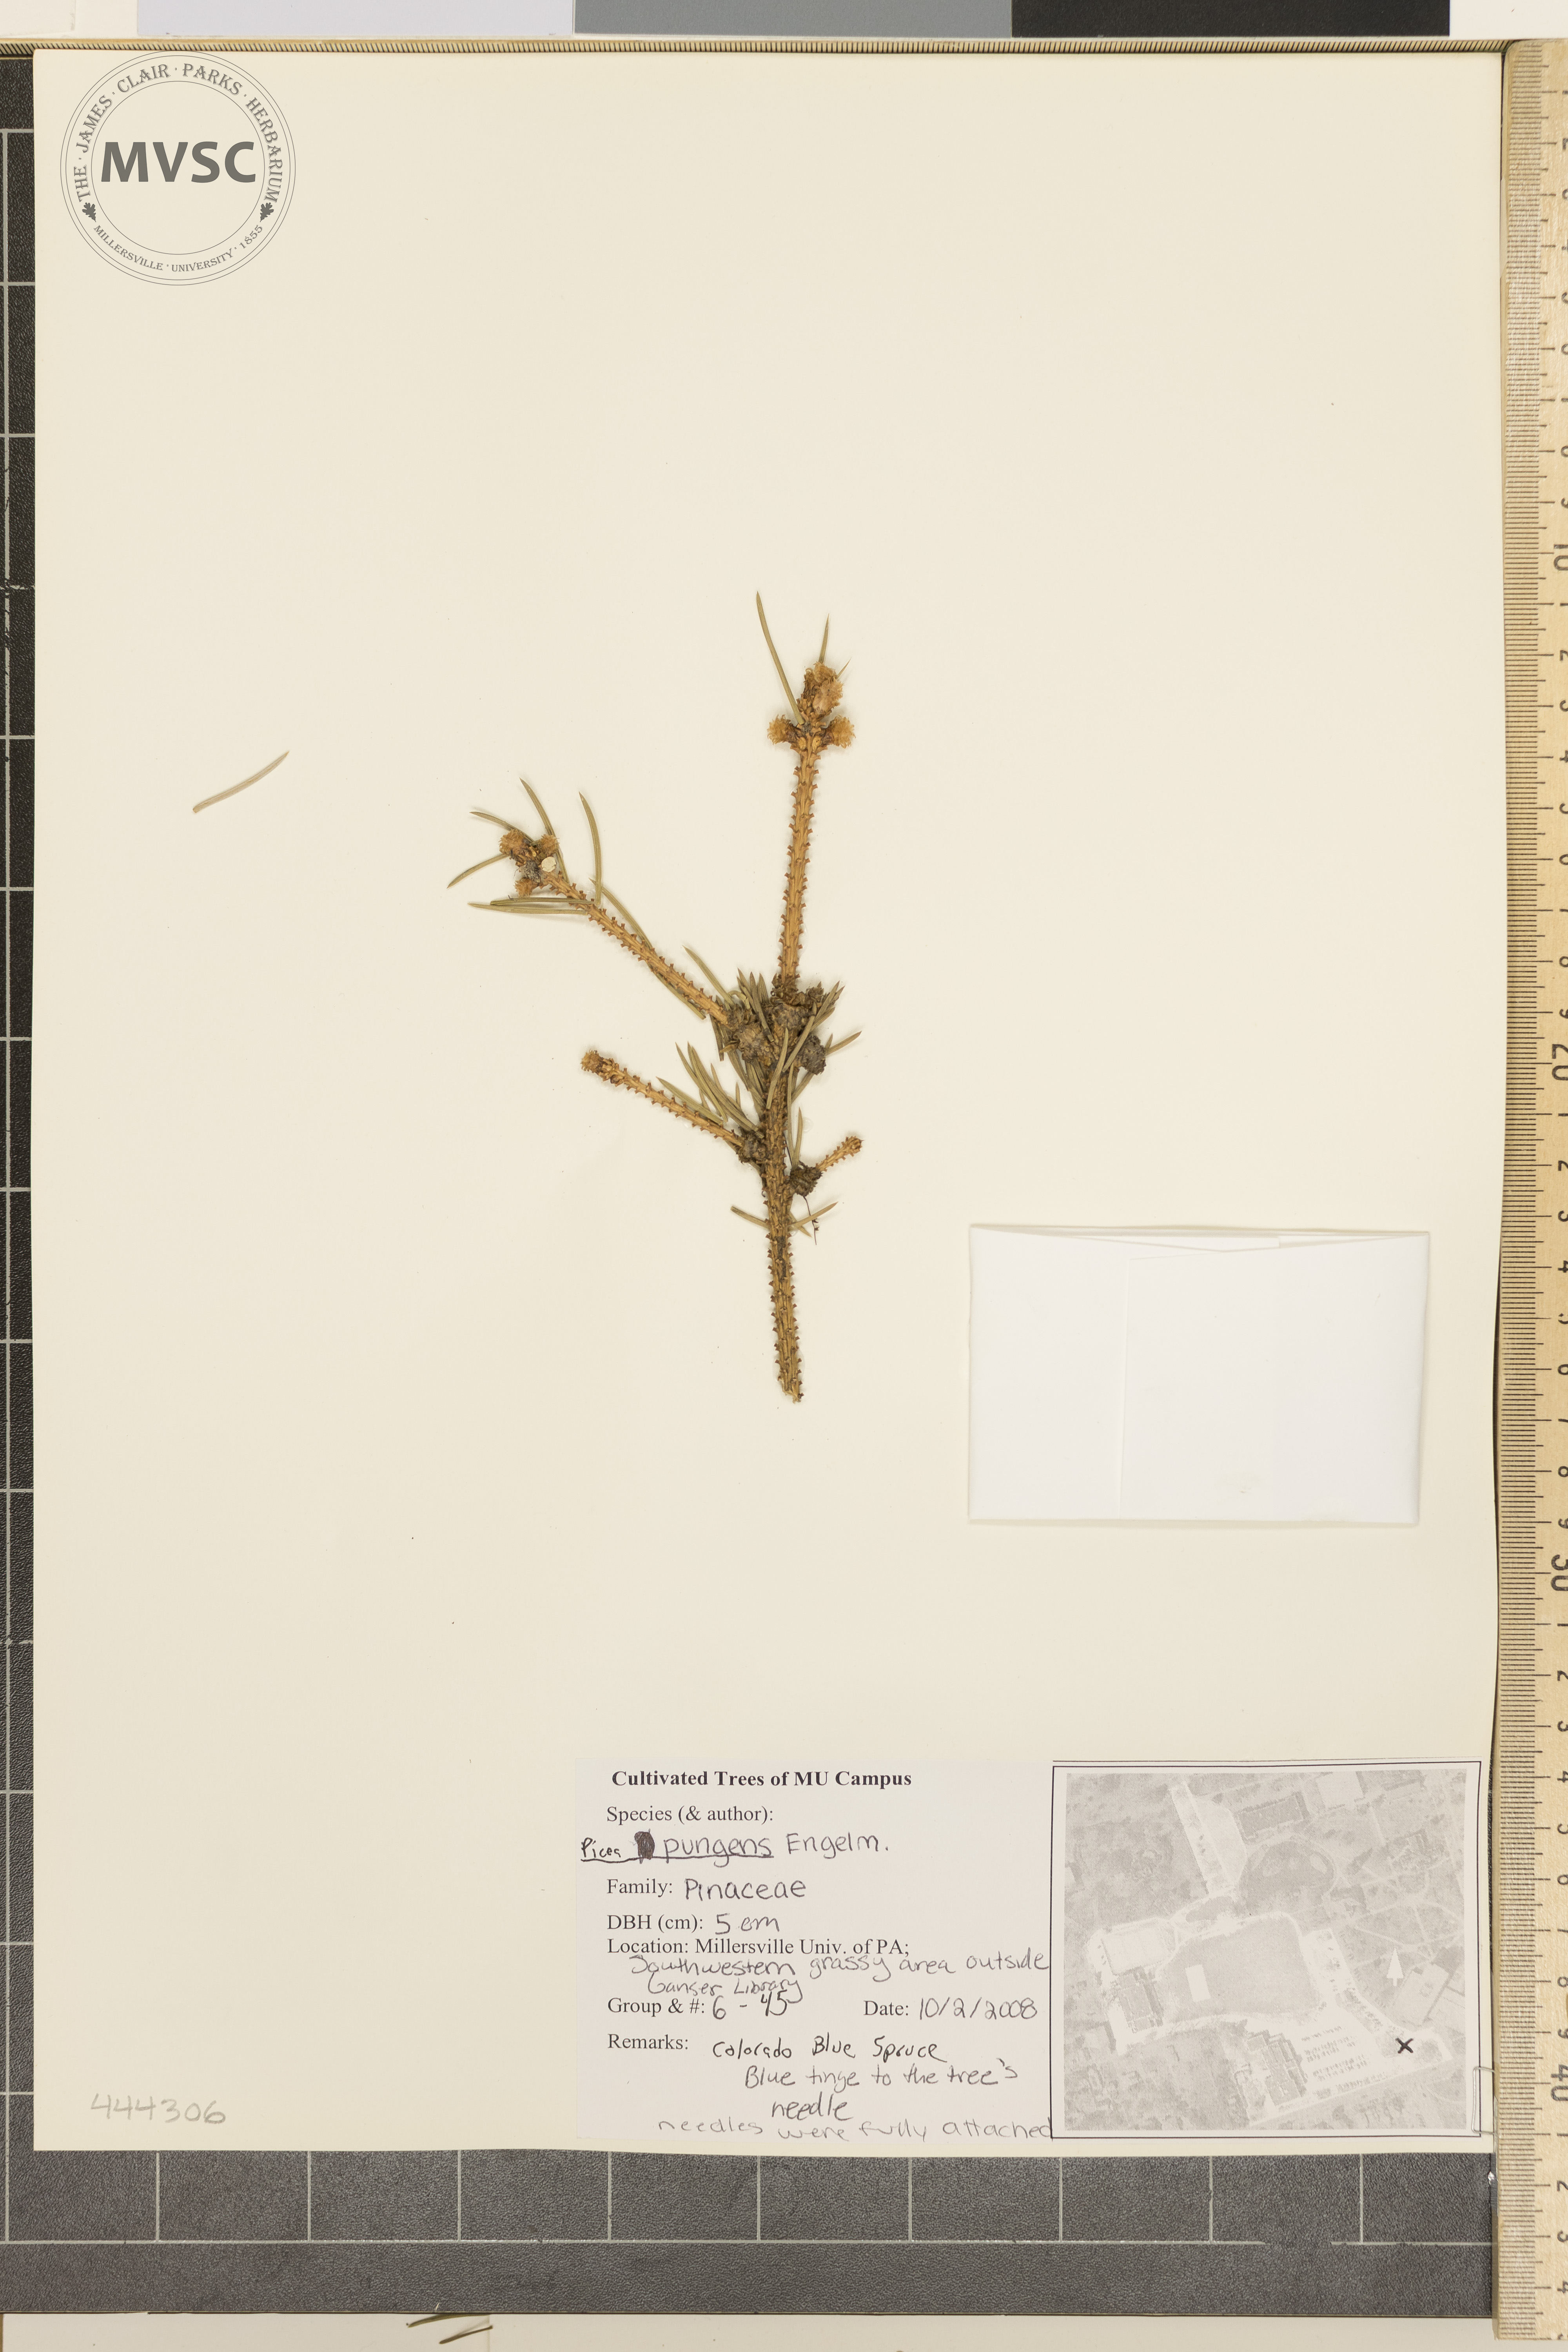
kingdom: Plantae
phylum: Tracheophyta
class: Pinopsida
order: Pinales
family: Pinaceae
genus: Picea
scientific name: Picea pungens
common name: Colorado Blue Spruce
